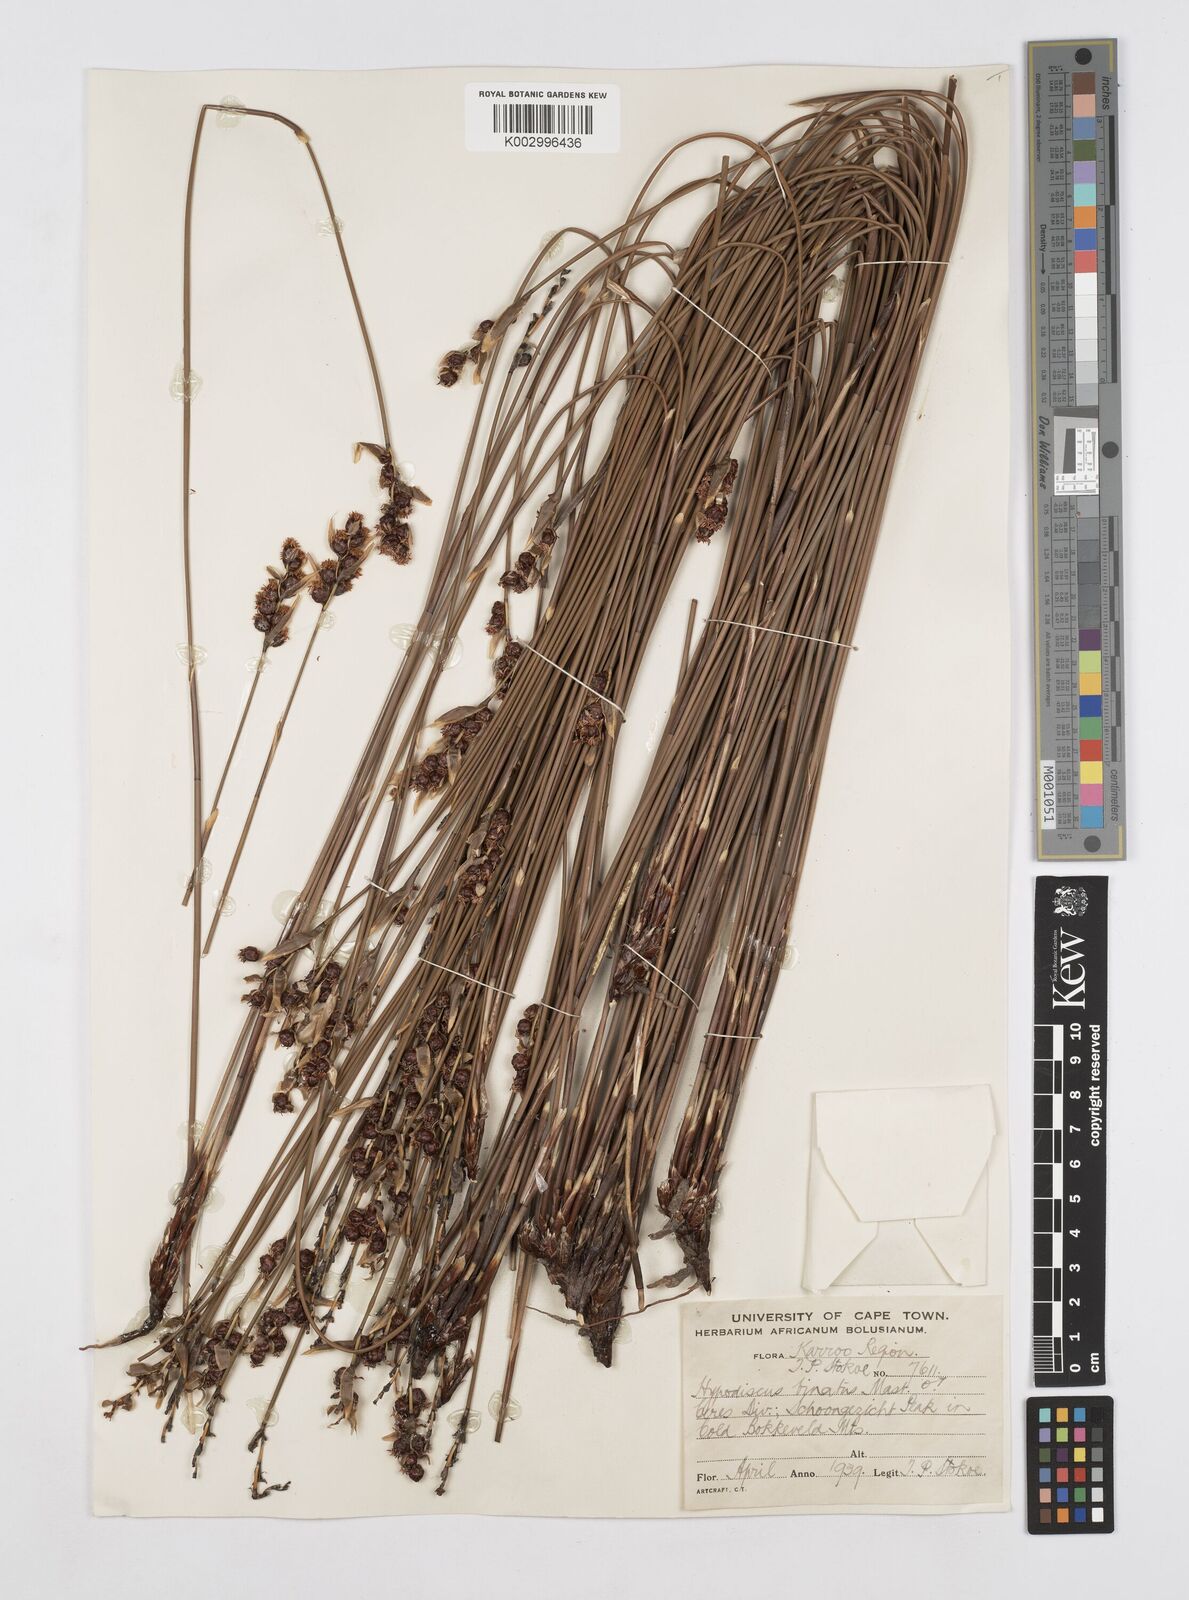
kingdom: Plantae
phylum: Tracheophyta
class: Liliopsida
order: Poales
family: Restionaceae
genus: Hypodiscus
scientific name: Hypodiscus laevigatus
